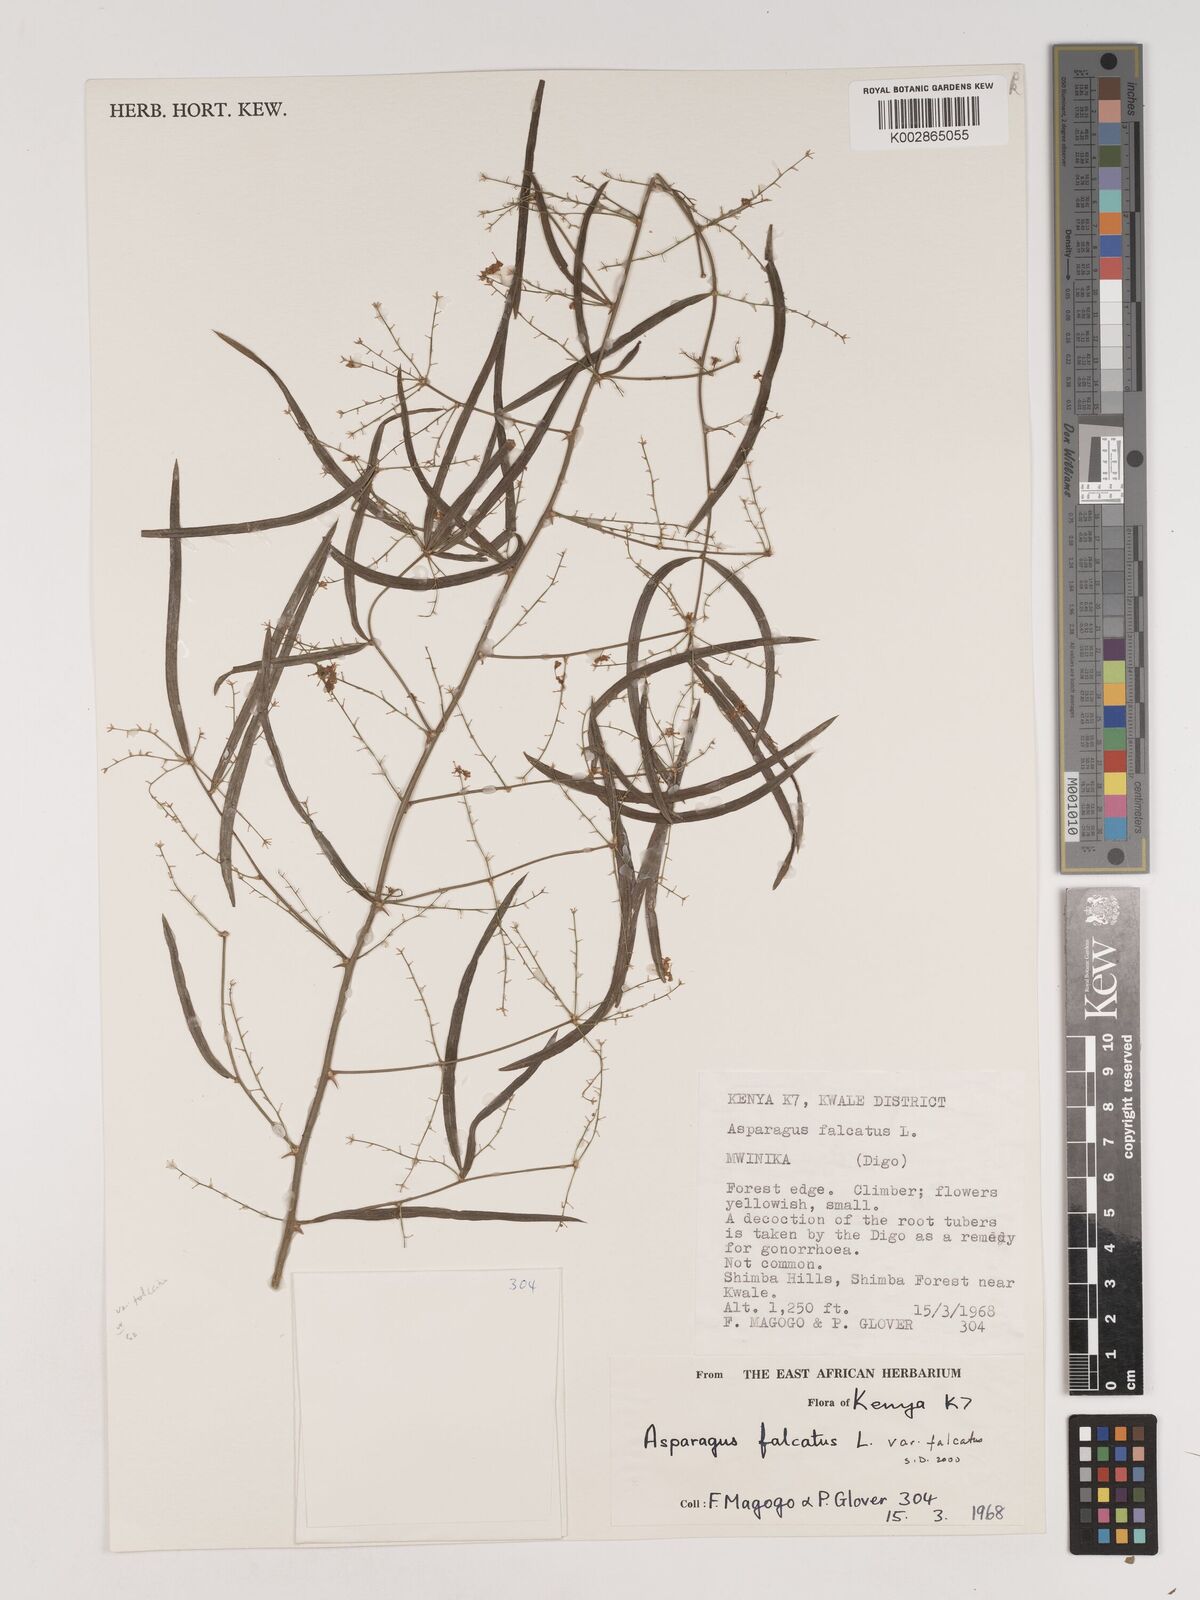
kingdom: Plantae
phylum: Tracheophyta
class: Liliopsida
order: Asparagales
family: Asparagaceae
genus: Asparagus
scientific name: Asparagus falcatus
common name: Asparagus
